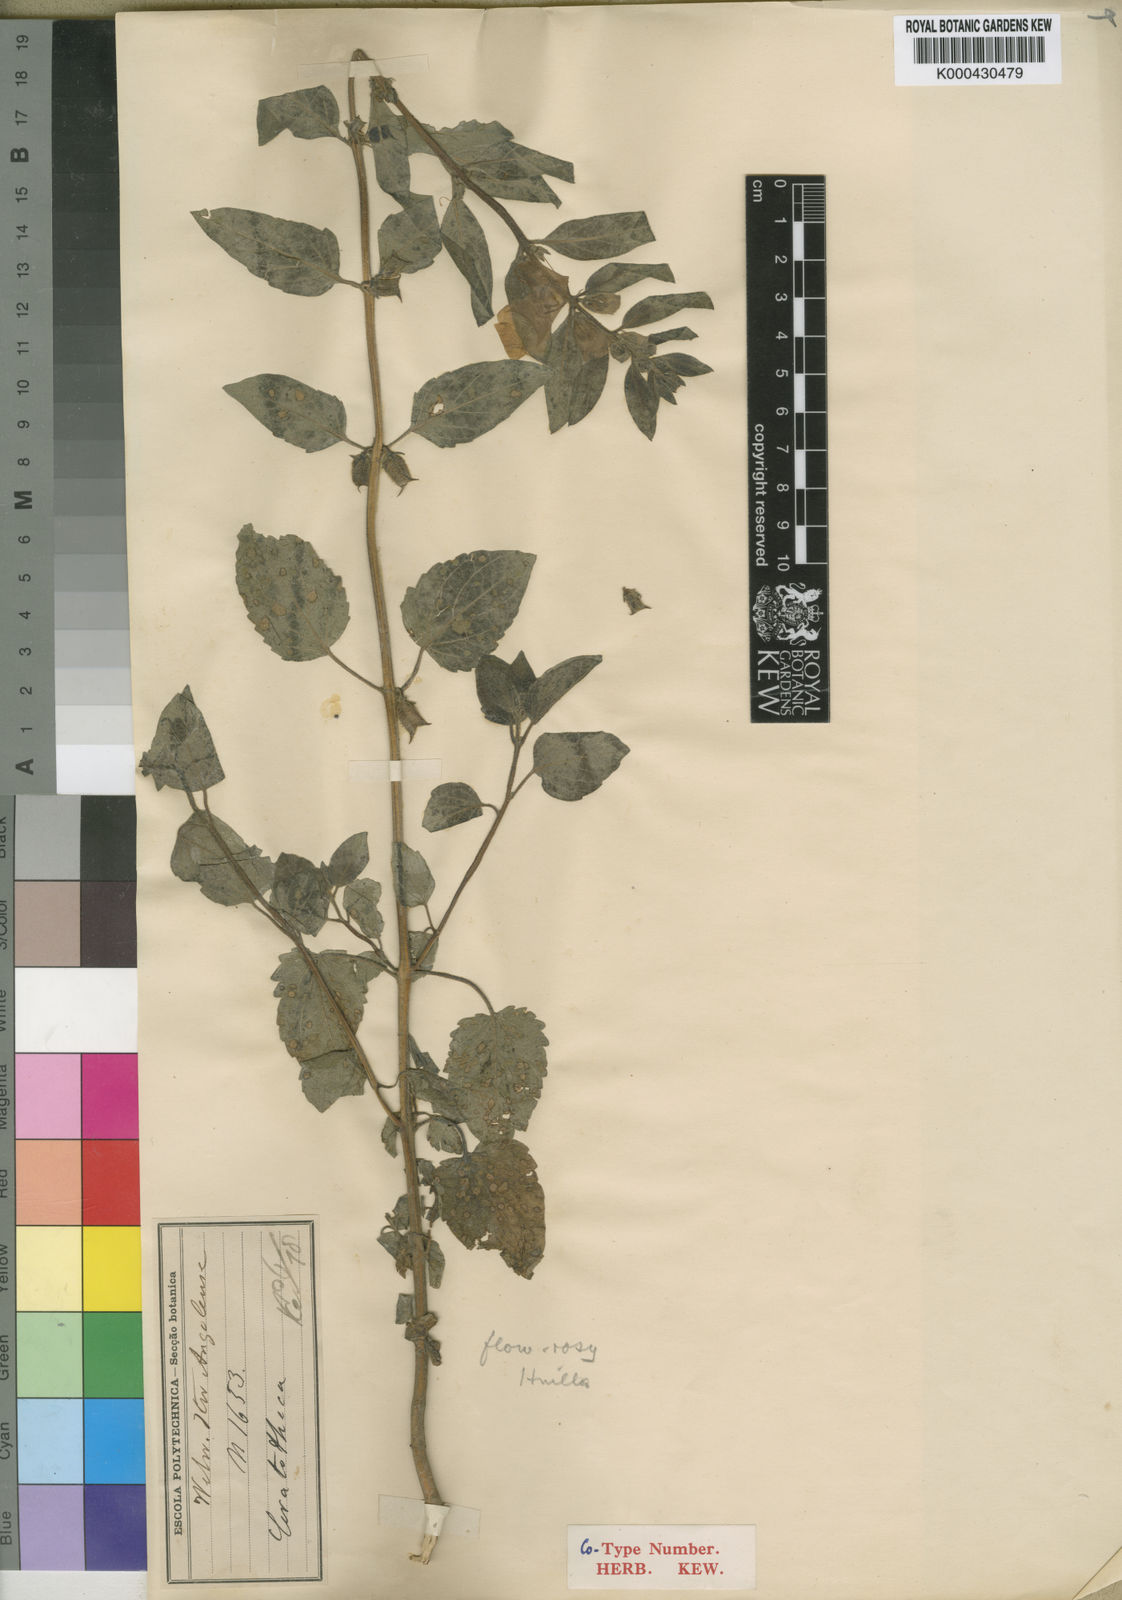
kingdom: Plantae
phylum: Tracheophyta
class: Magnoliopsida
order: Lamiales
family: Pedaliaceae
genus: Sesamum
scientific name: Sesamum integribracteatum
